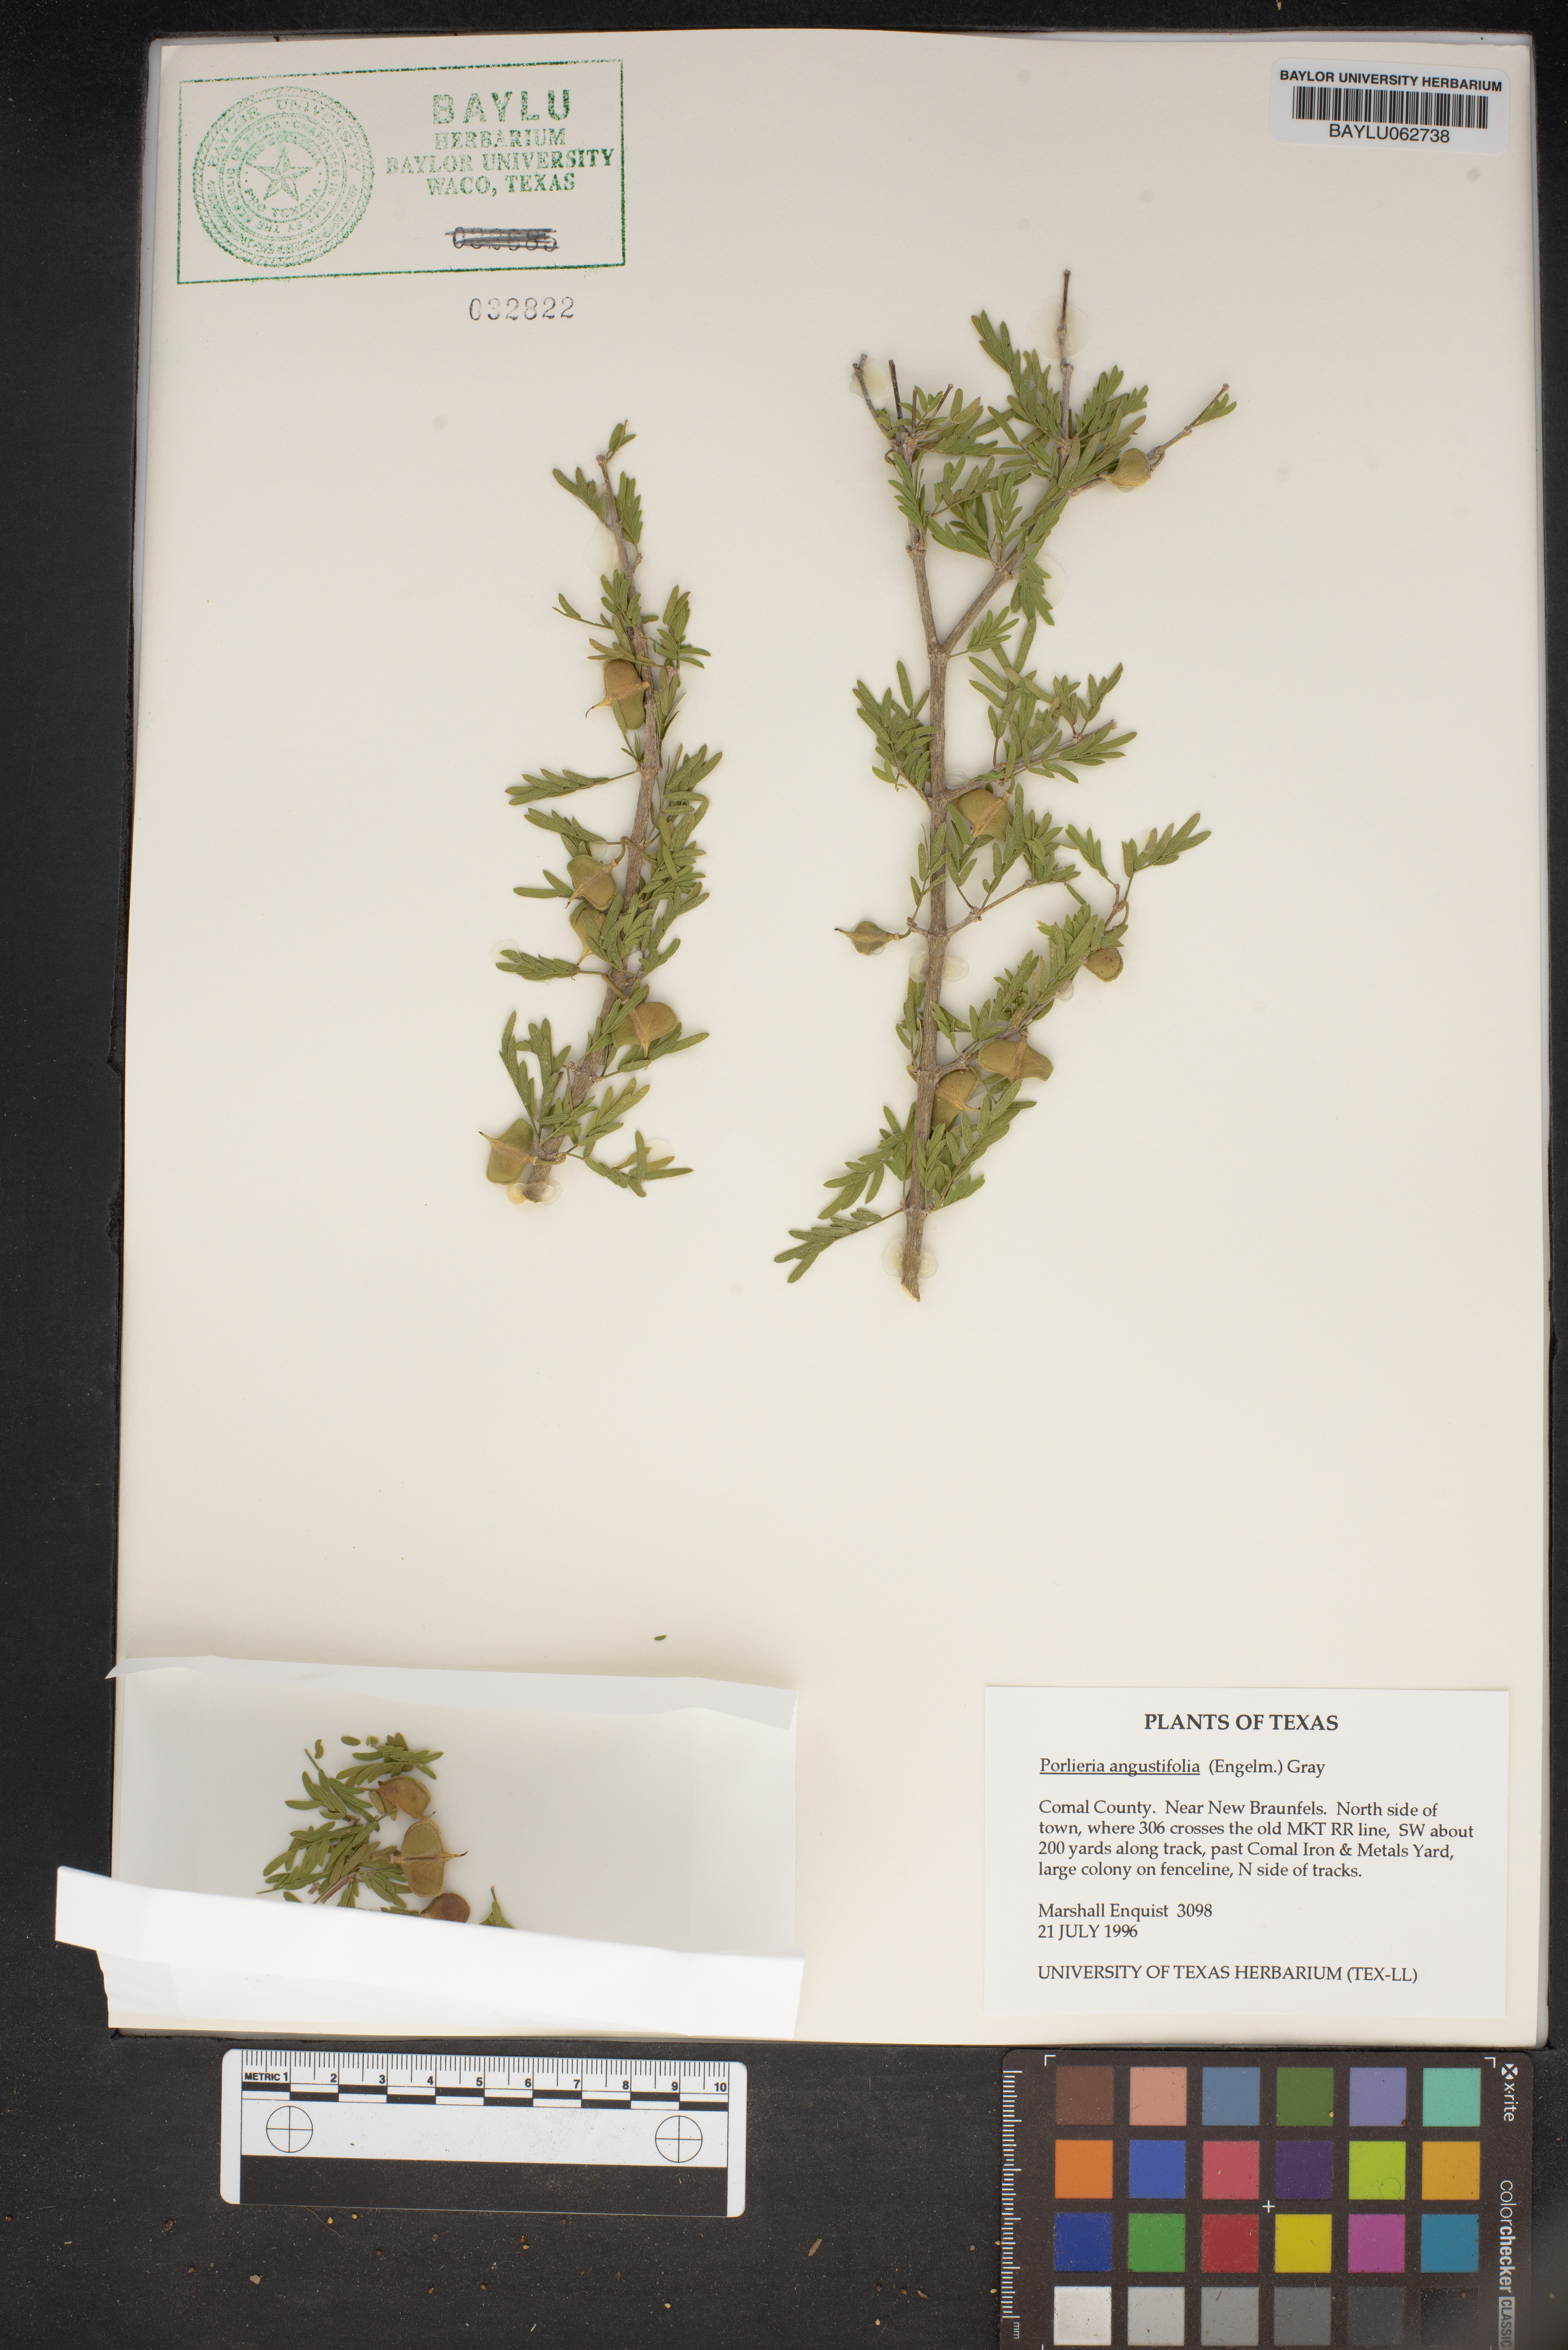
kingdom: Plantae
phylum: Tracheophyta
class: Magnoliopsida
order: Zygophyllales
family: Zygophyllaceae
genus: Porlieria
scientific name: Porlieria angustifolia
